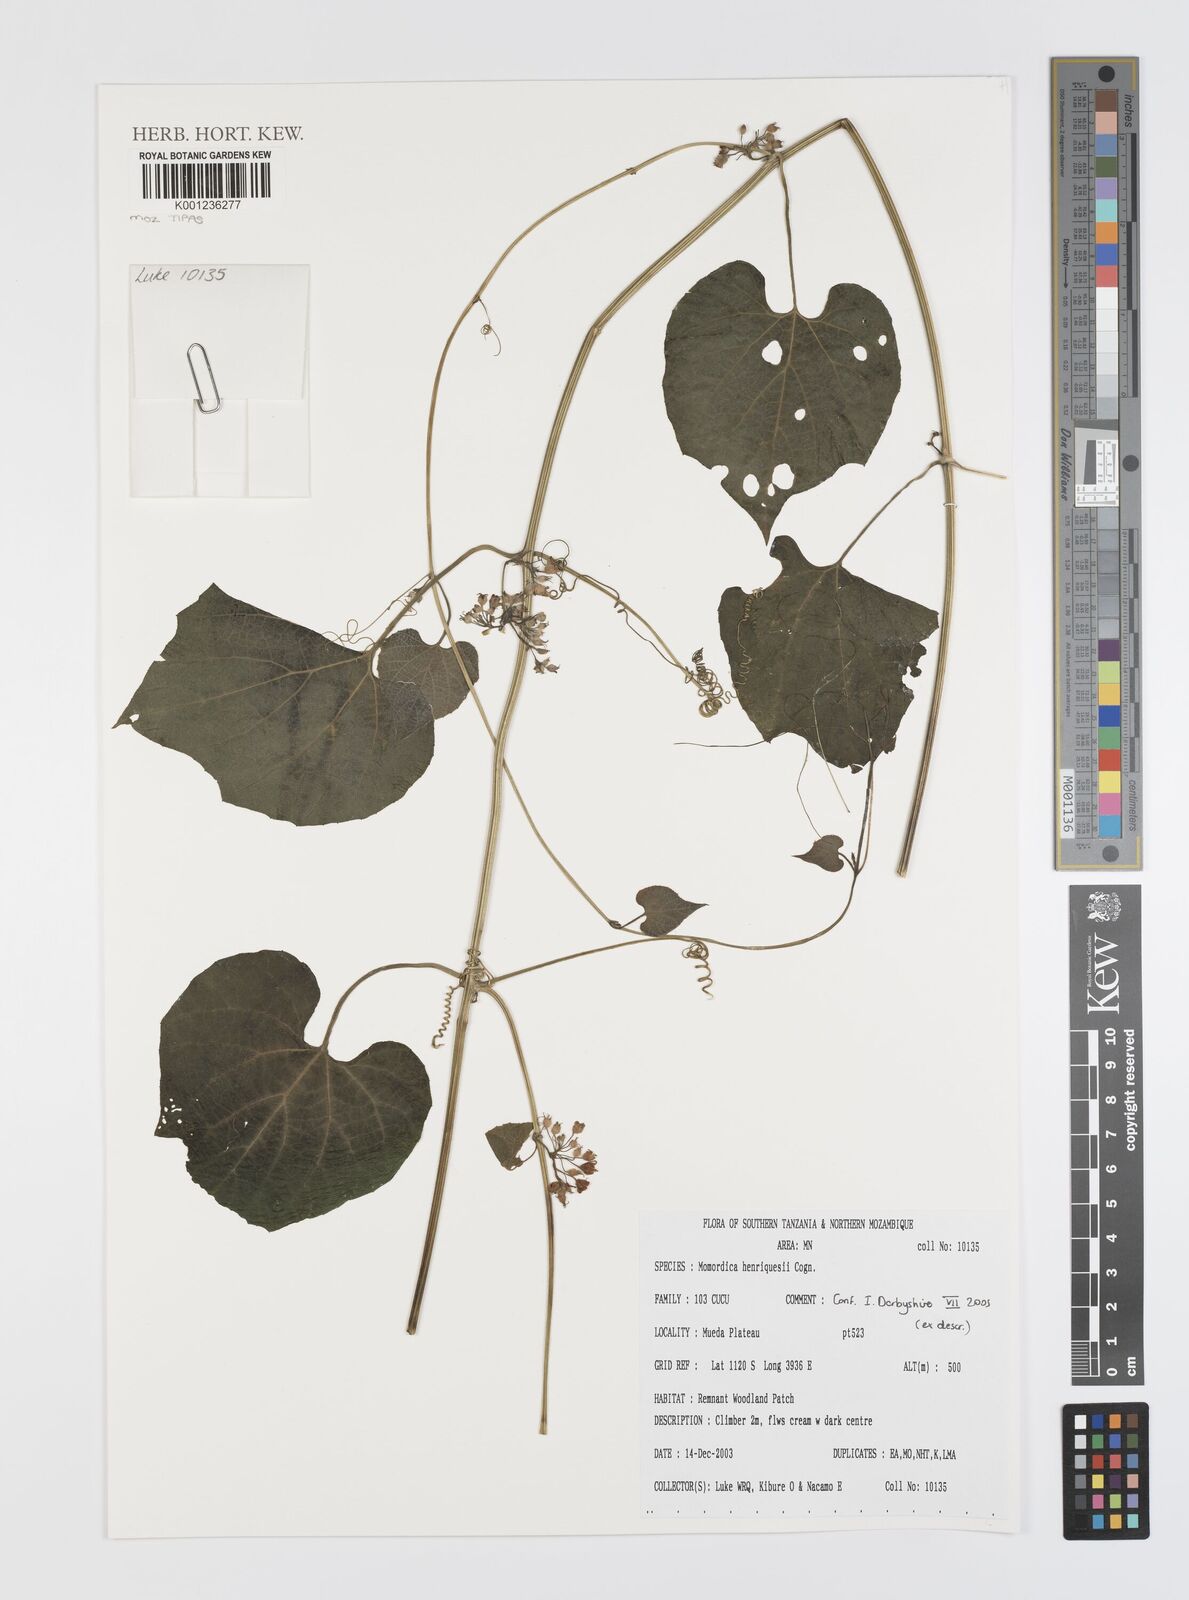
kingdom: Plantae
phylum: Tracheophyta
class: Magnoliopsida
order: Cucurbitales
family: Cucurbitaceae
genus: Momordica
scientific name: Momordica henriquesii
